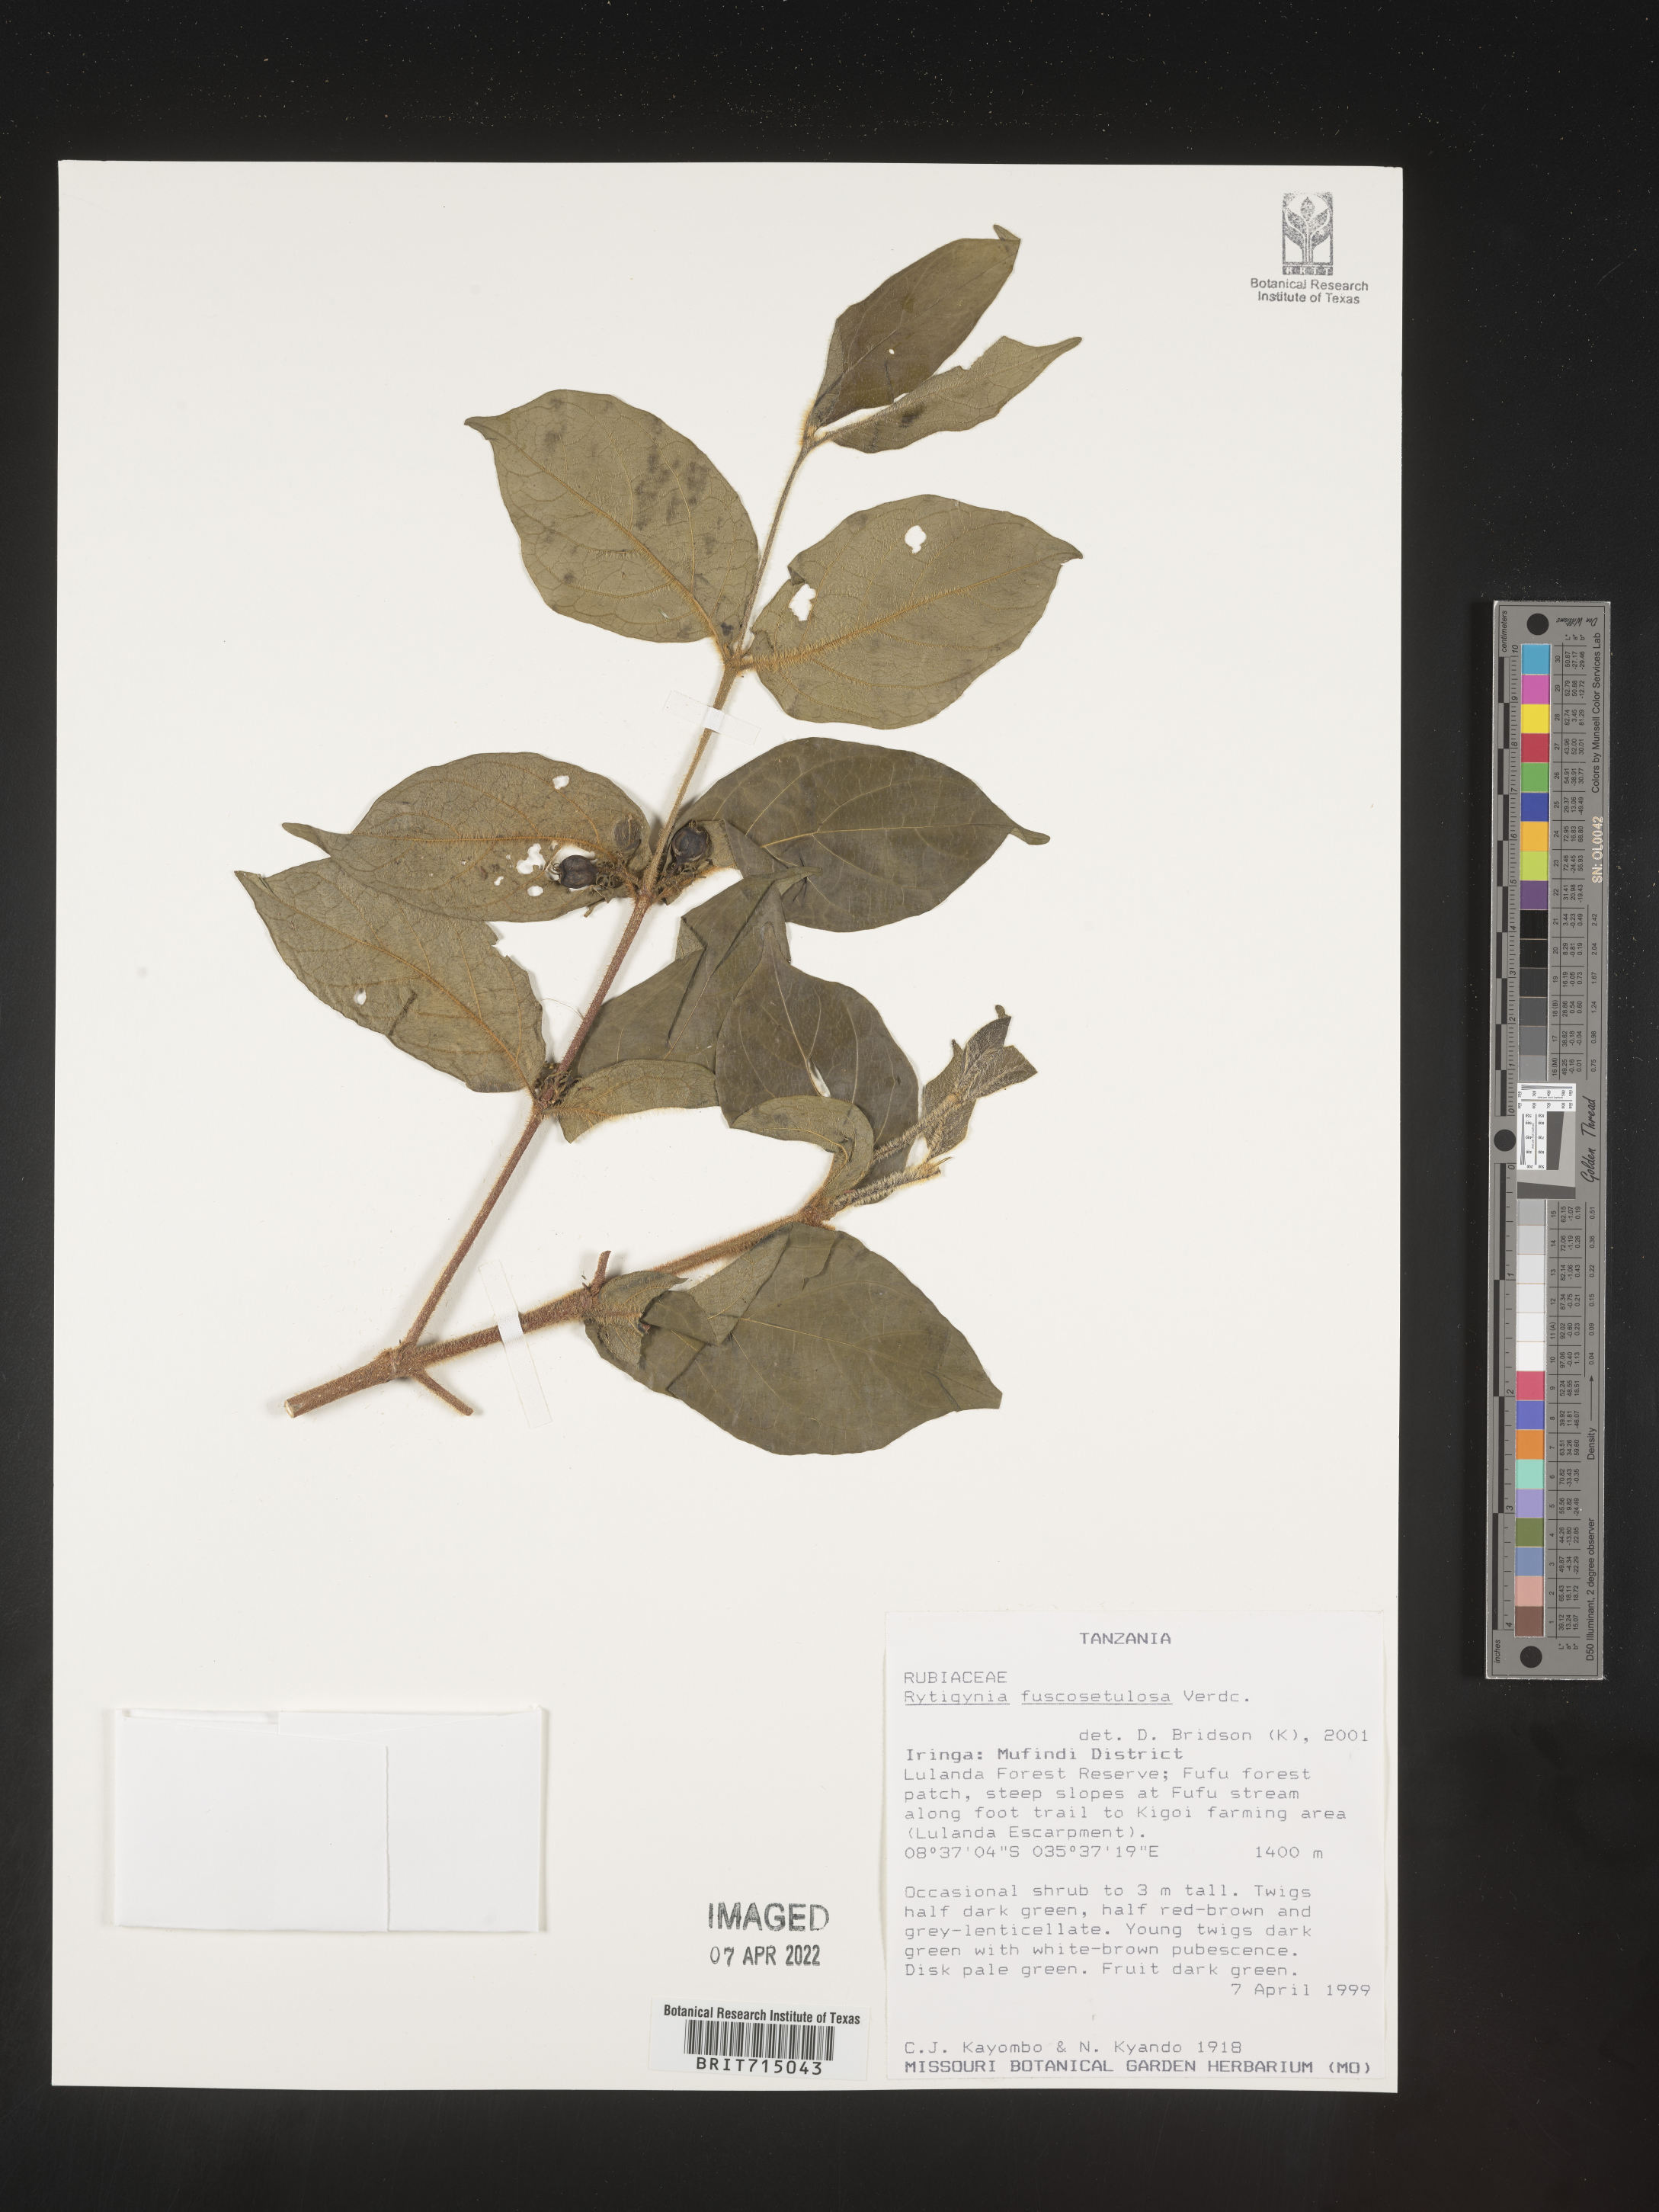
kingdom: Plantae
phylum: Tracheophyta
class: Magnoliopsida
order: Gentianales
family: Rubiaceae
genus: Rytigynia
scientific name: Rytigynia
